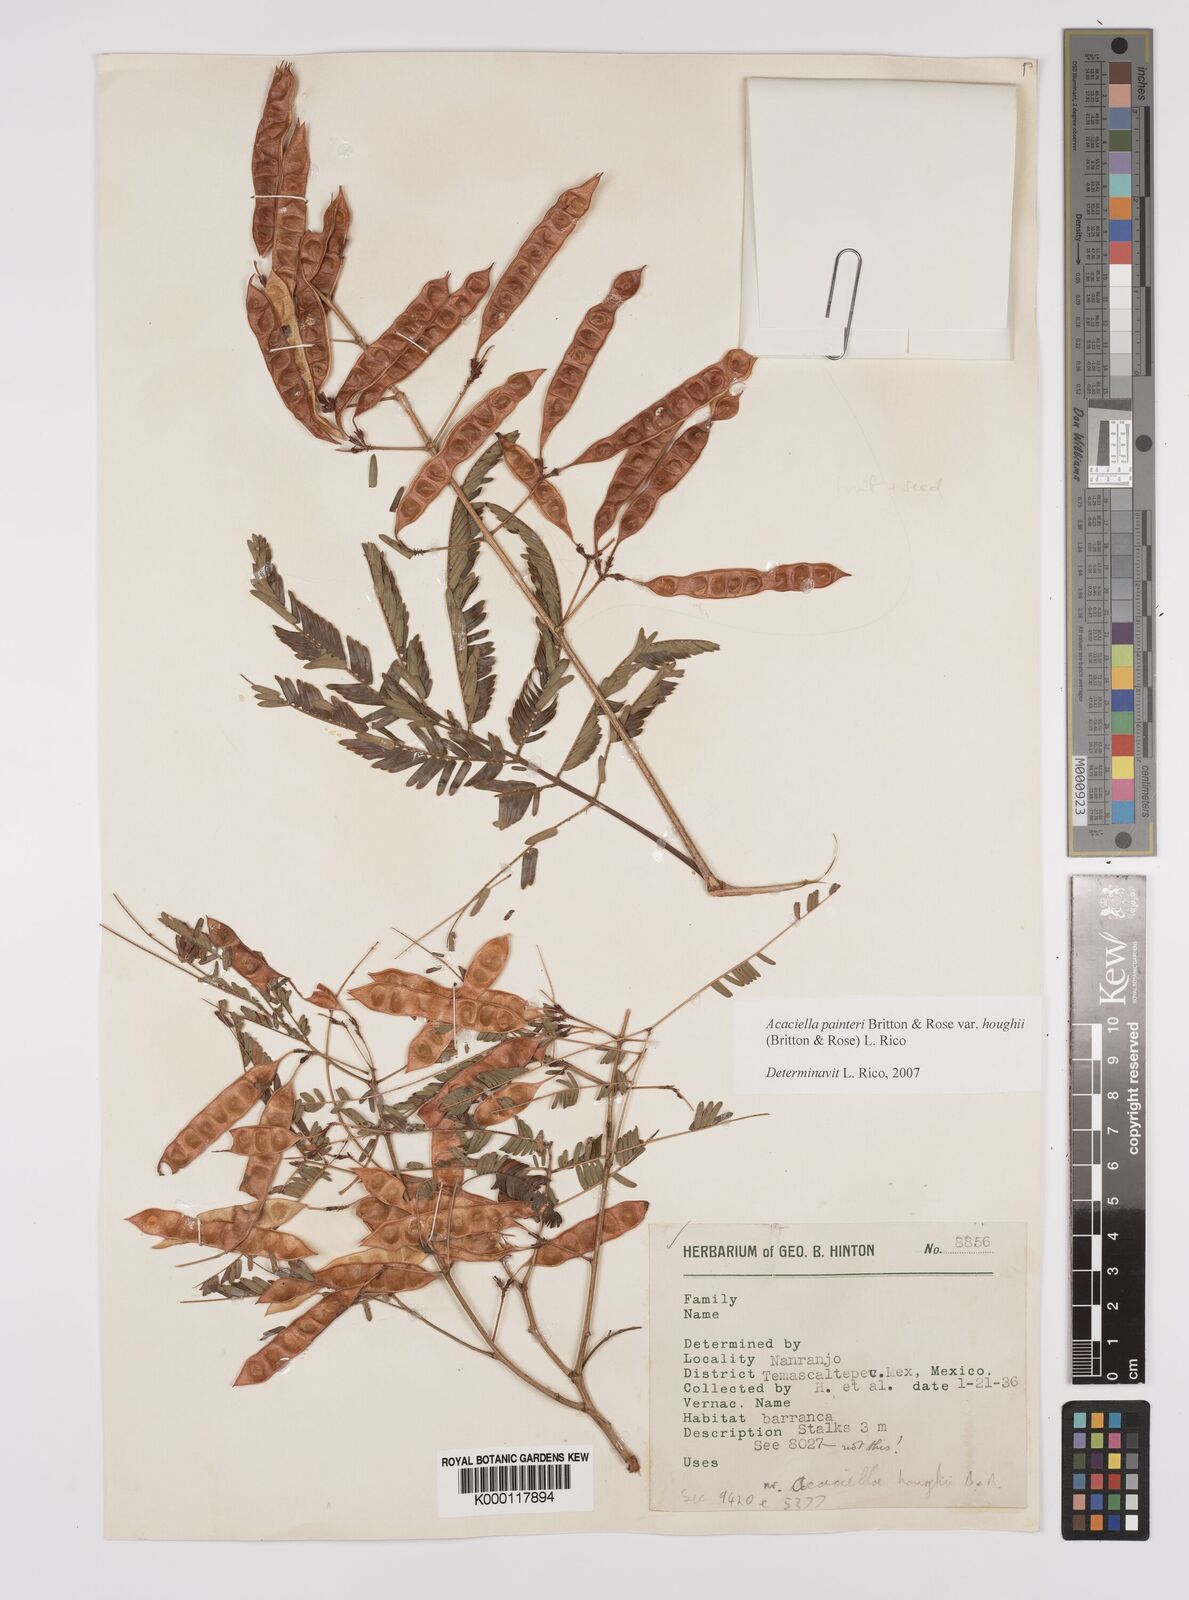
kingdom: Plantae
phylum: Tracheophyta
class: Magnoliopsida
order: Fabales
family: Fabaceae
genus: Acaciella
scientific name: Acaciella painteri
